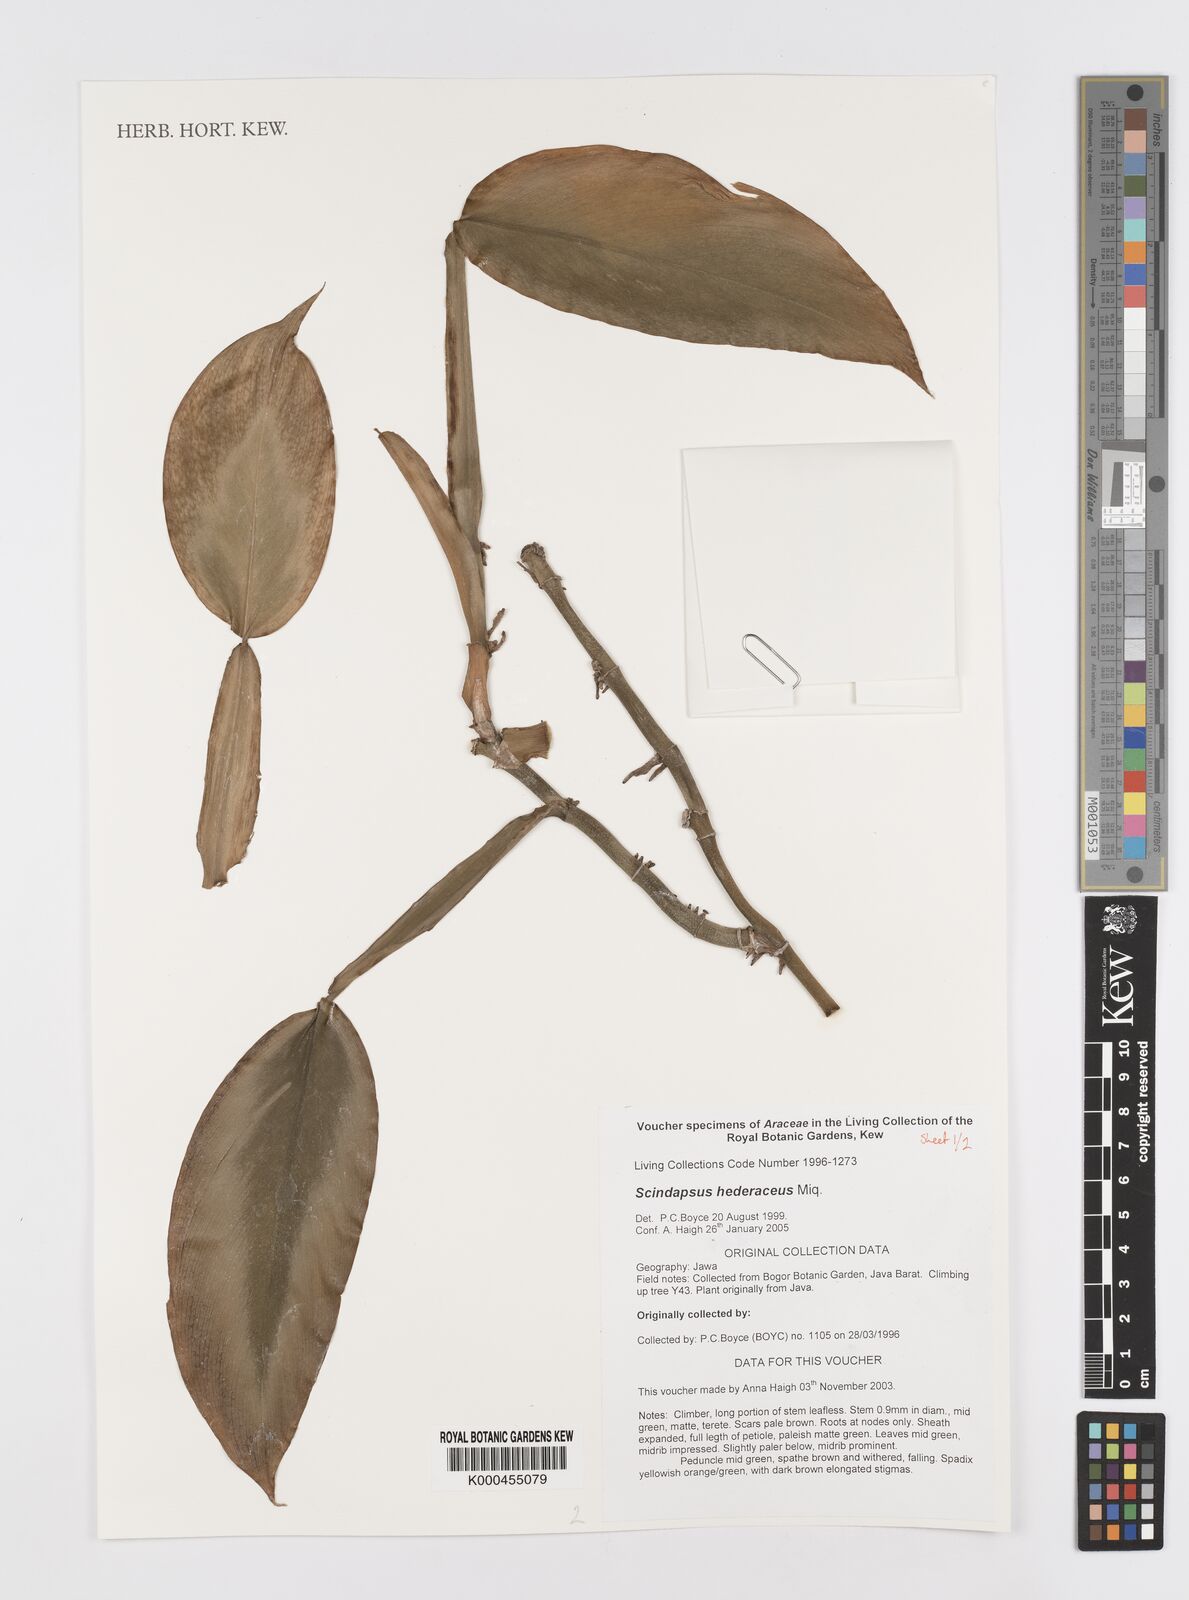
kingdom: Plantae
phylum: Tracheophyta
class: Liliopsida
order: Alismatales
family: Araceae
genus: Scindapsus
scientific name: Scindapsus hederaceus
